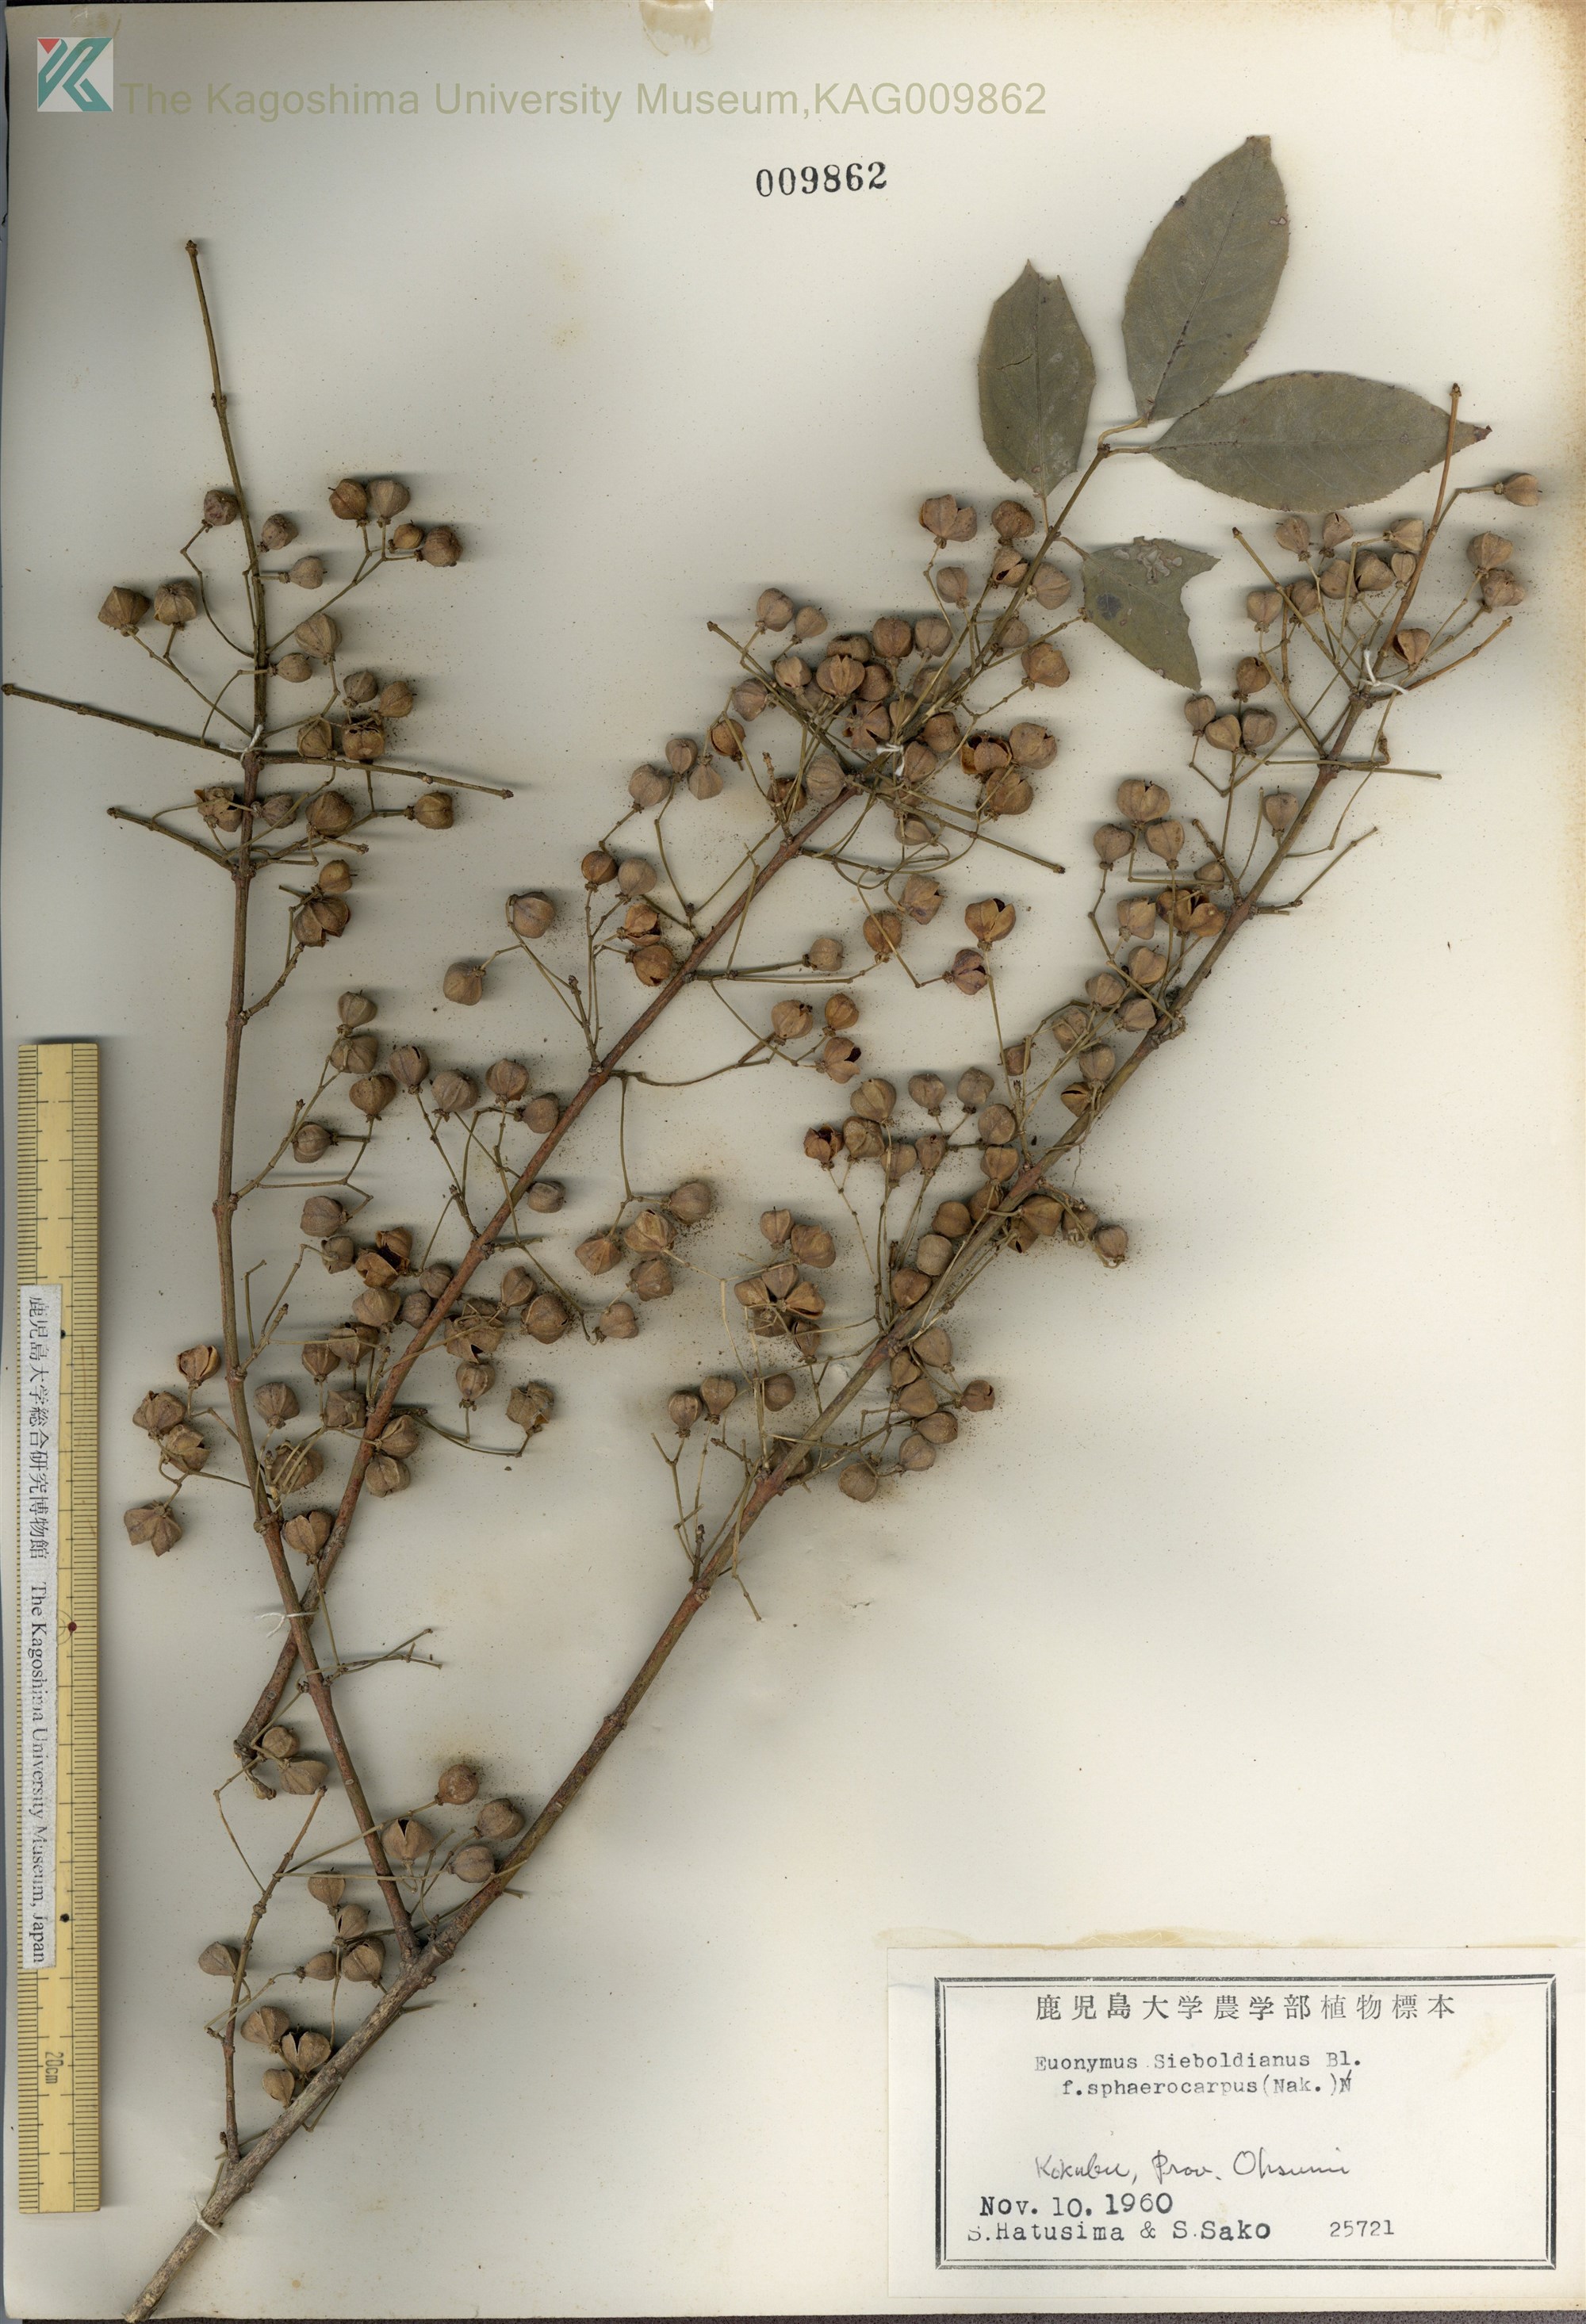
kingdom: Plantae
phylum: Tracheophyta
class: Magnoliopsida
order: Celastrales
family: Celastraceae
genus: Euonymus
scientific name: Euonymus hamiltonianus
